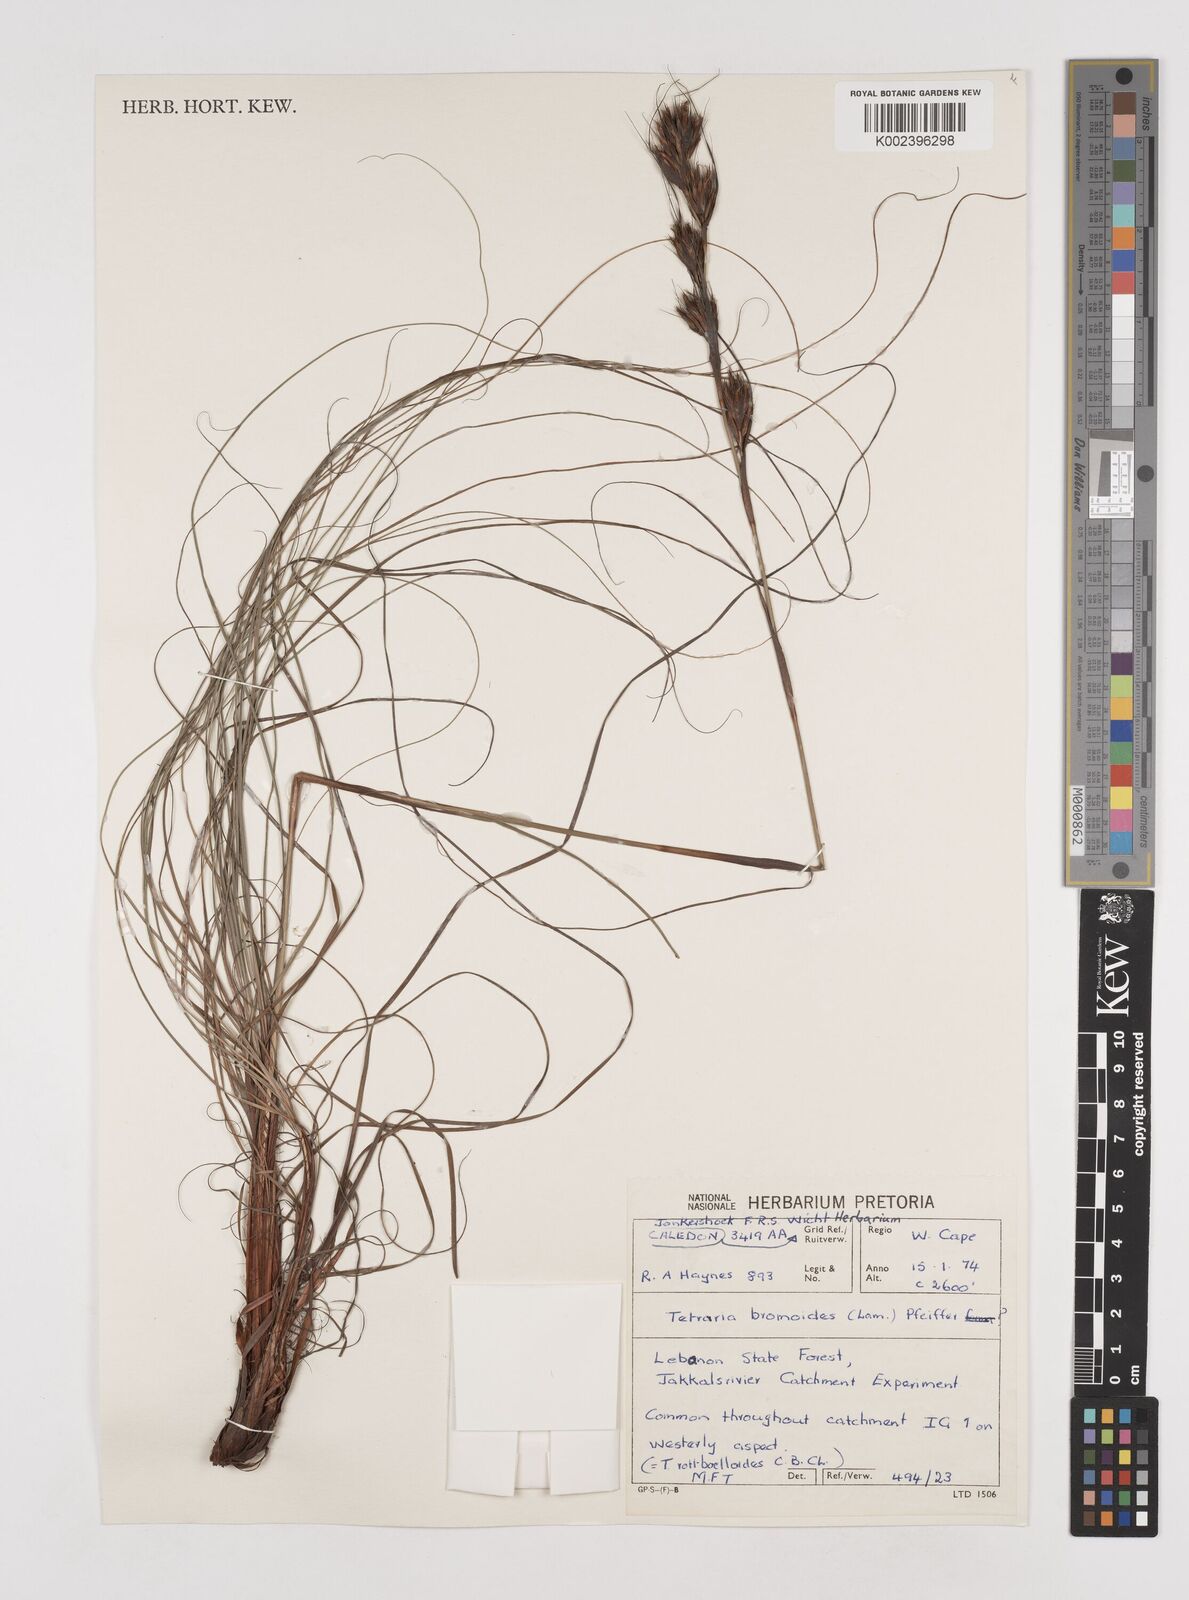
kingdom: Plantae
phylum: Tracheophyta
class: Liliopsida
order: Poales
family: Cyperaceae
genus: Tetraria
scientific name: Tetraria bromoides
